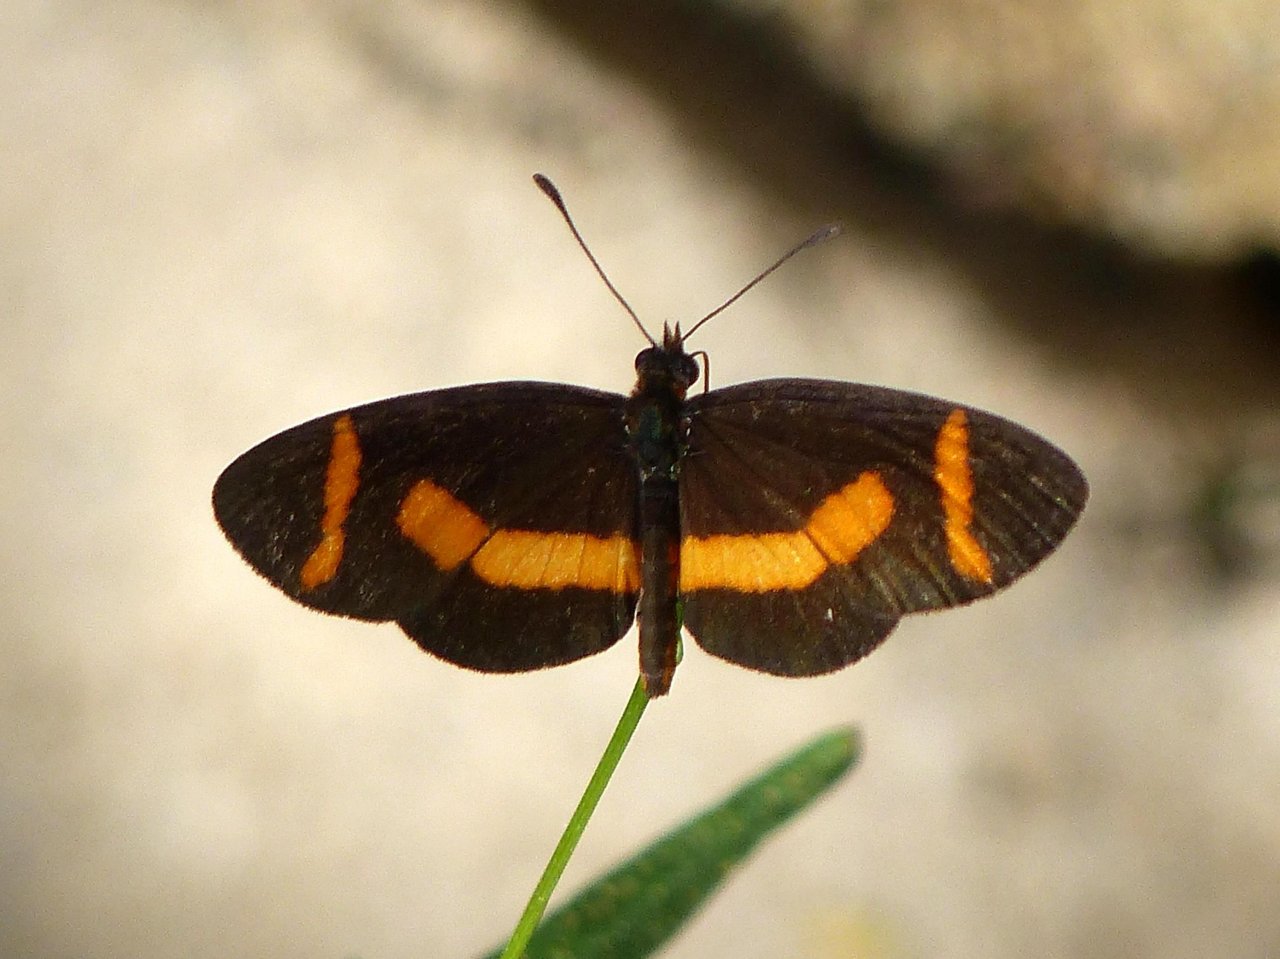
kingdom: Animalia
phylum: Arthropoda
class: Insecta
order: Lepidoptera
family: Nymphalidae
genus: Microtia
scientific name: Microtia elva
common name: Elf
